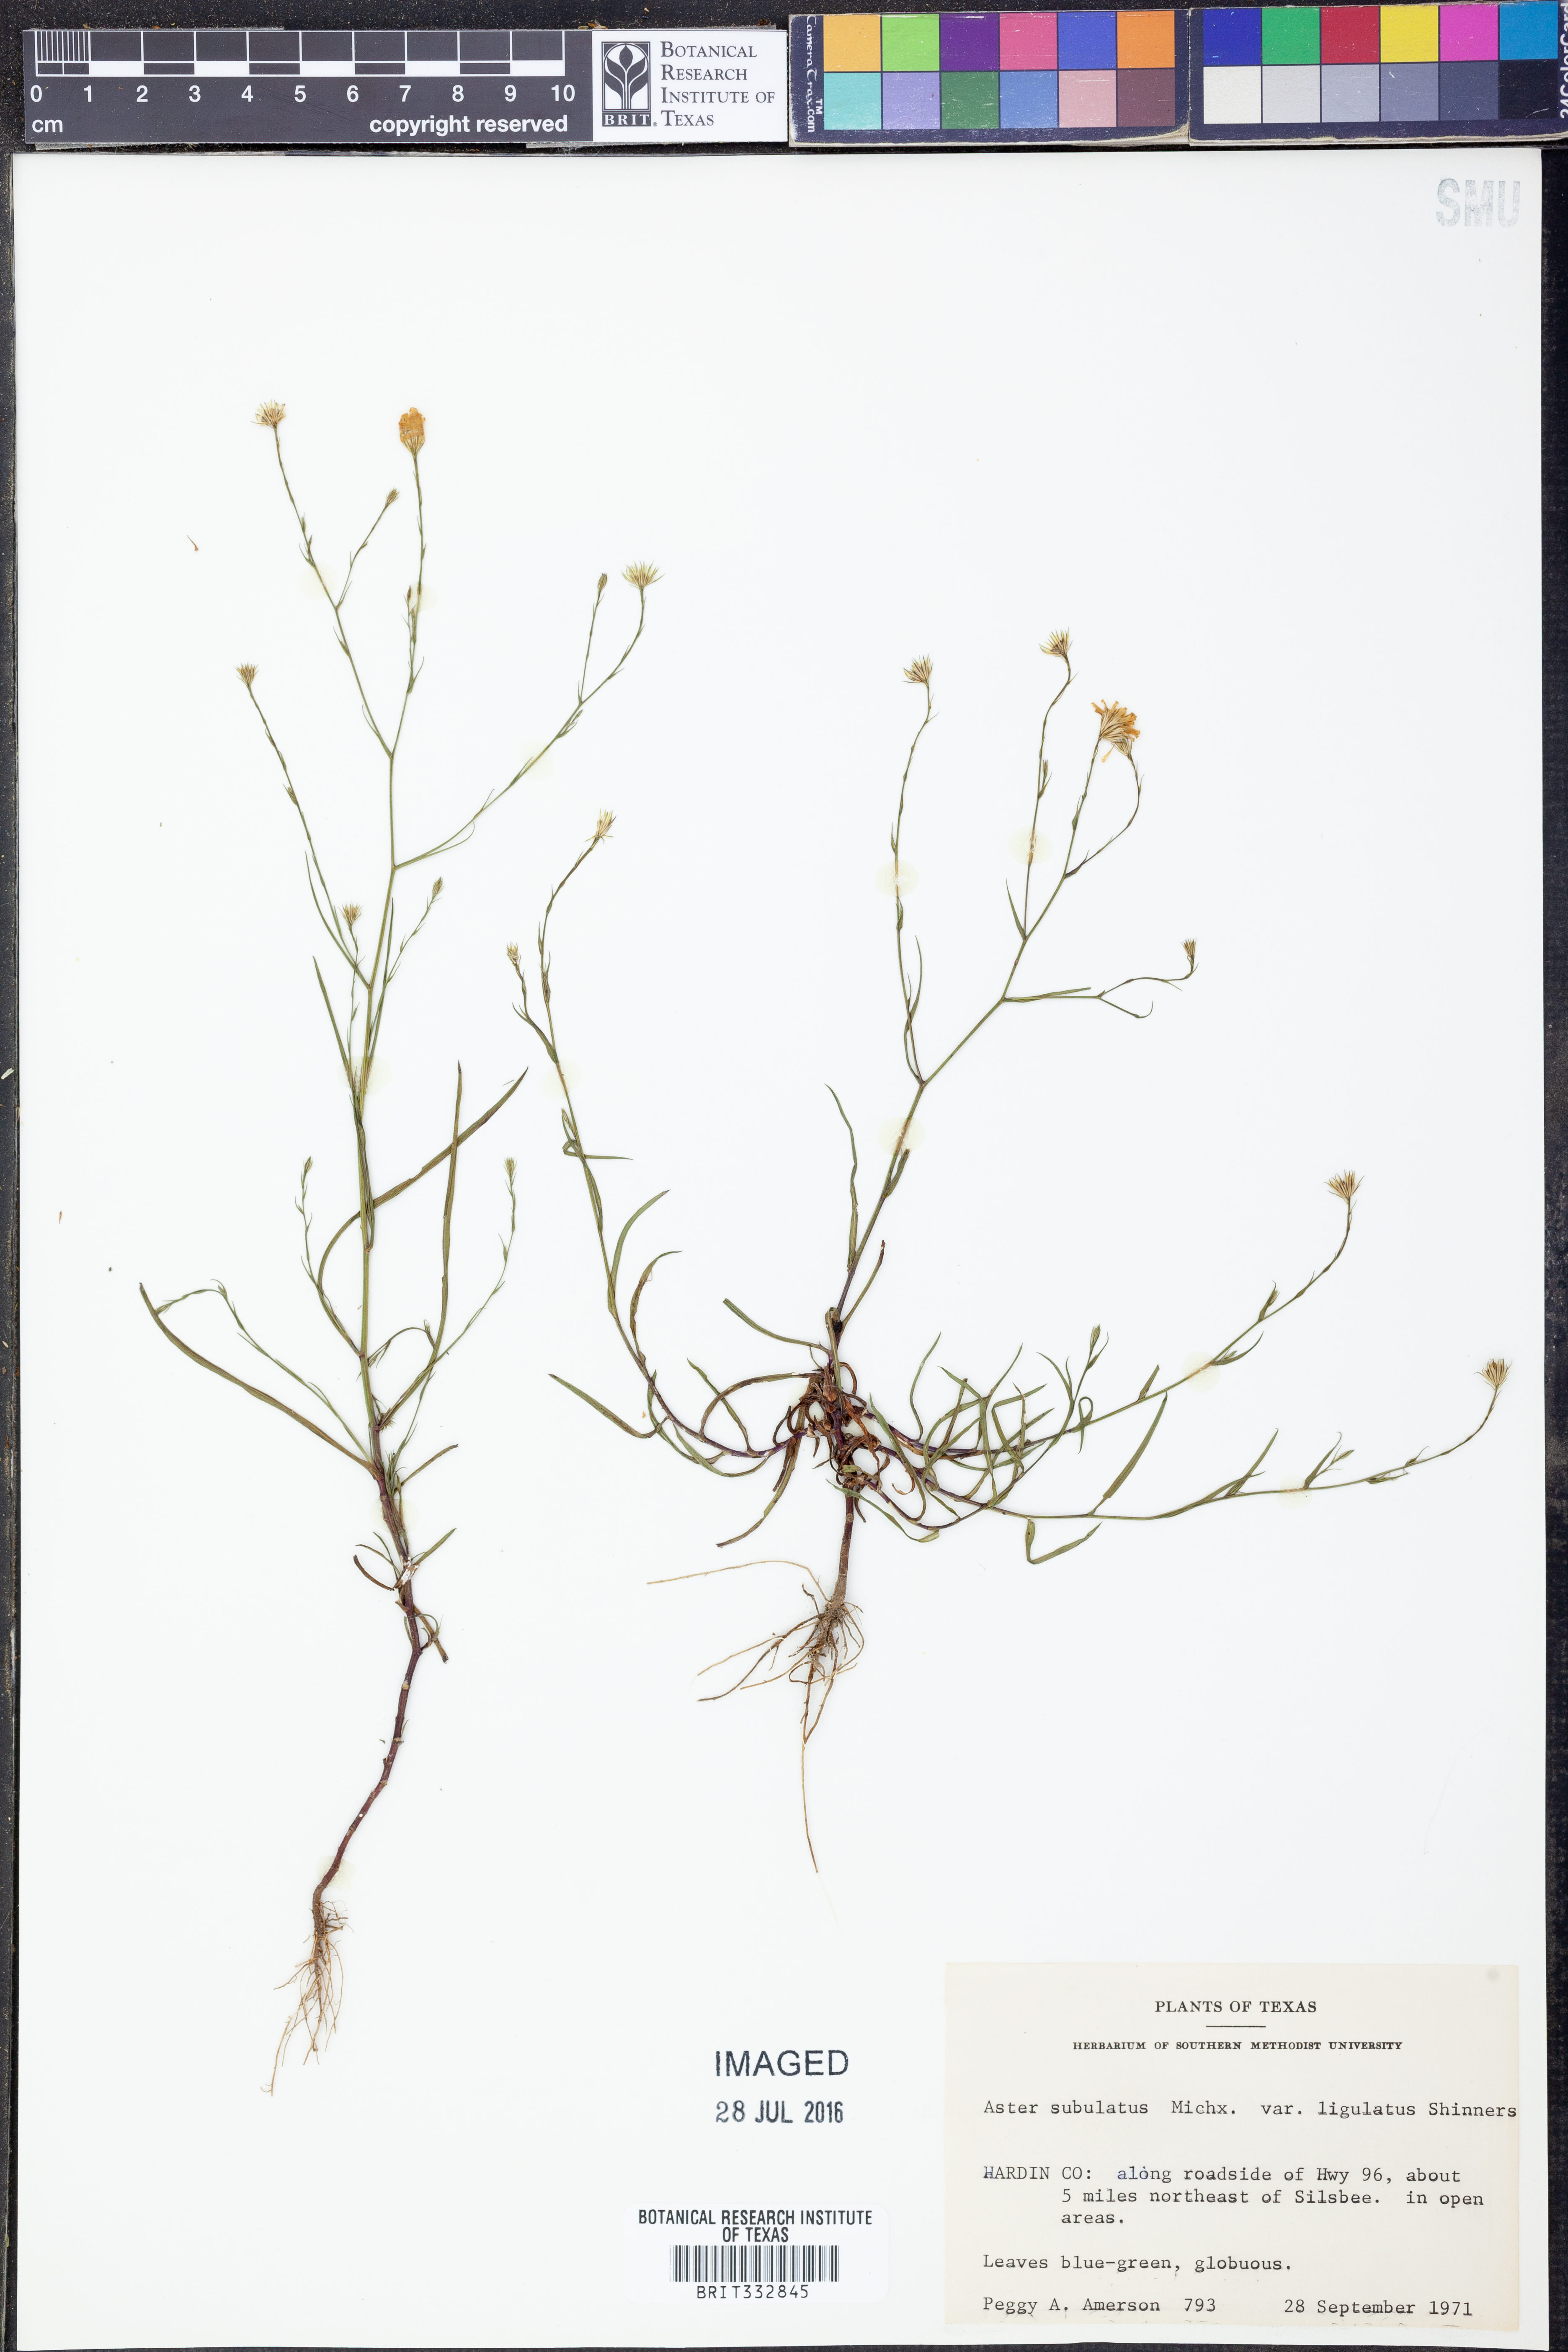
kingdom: Plantae
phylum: Tracheophyta
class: Magnoliopsida
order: Asterales
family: Asteraceae
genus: Symphyotrichum
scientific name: Symphyotrichum divaricatum
